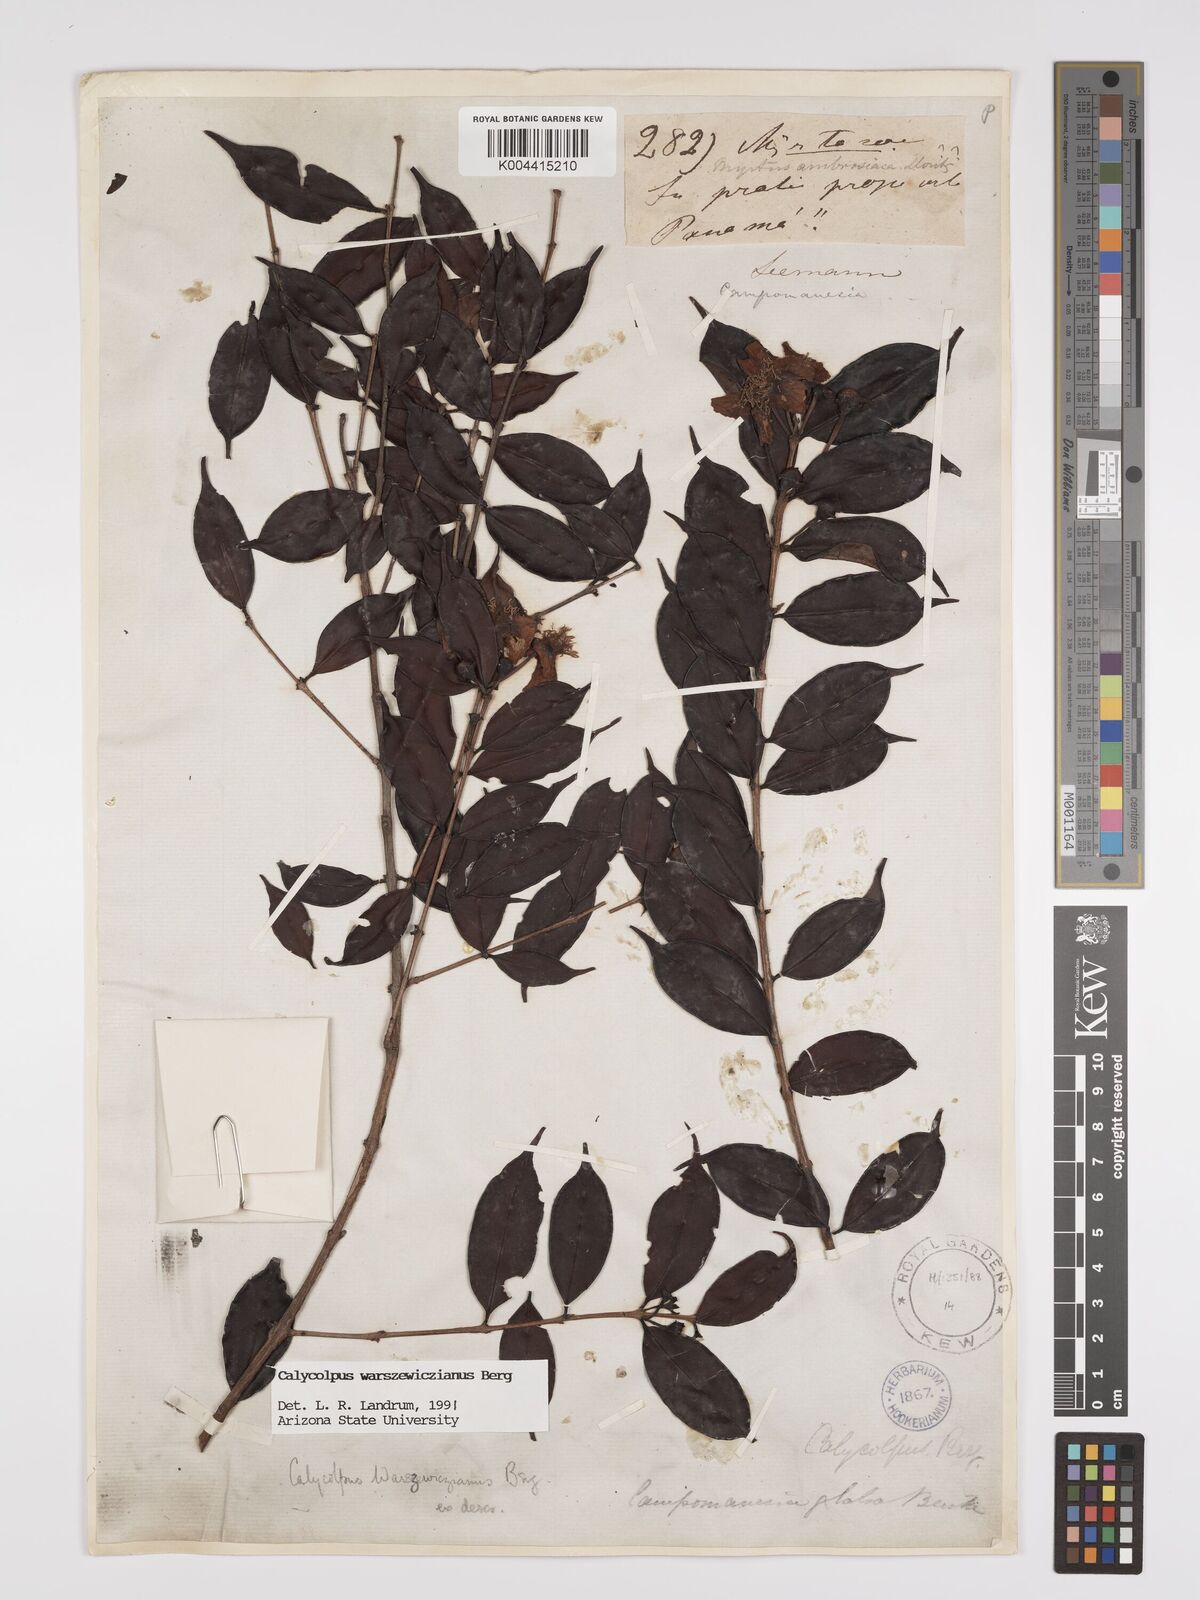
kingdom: Plantae
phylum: Tracheophyta
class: Magnoliopsida
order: Myrtales
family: Myrtaceae
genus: Calycolpus
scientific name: Calycolpus warszewiczianus
